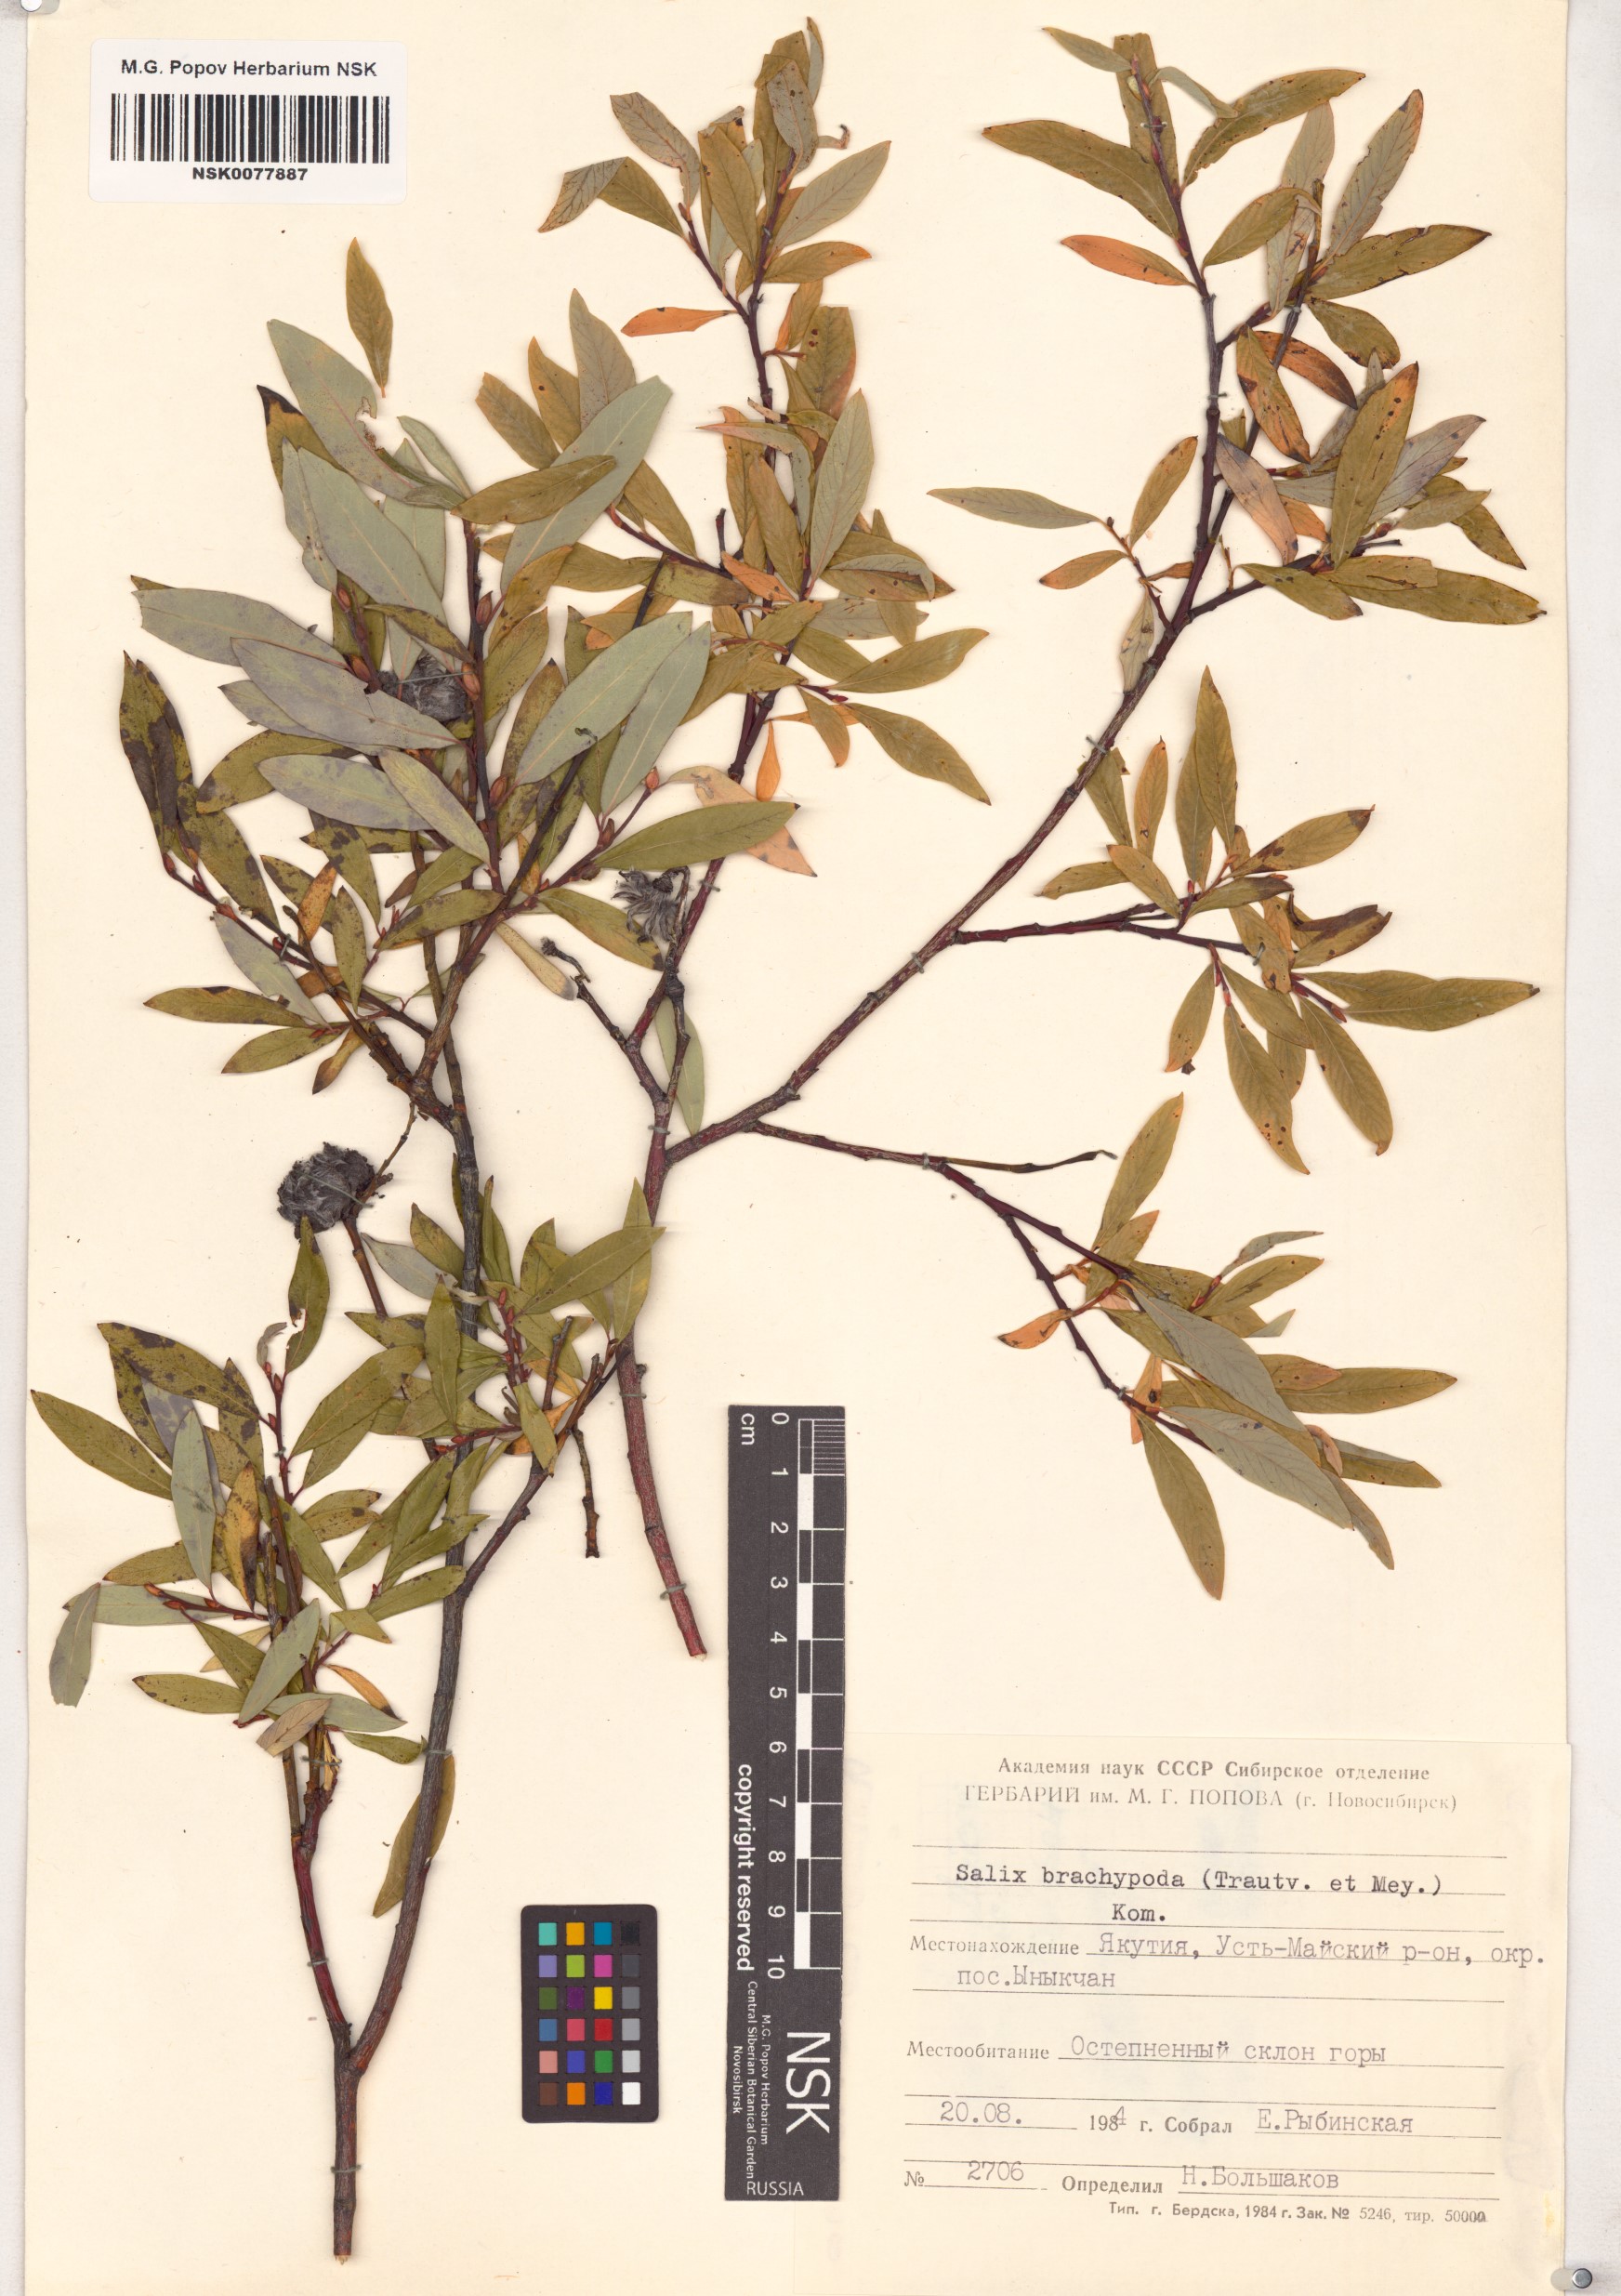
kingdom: Plantae
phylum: Tracheophyta
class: Magnoliopsida
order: Malpighiales
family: Salicaceae
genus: Salix
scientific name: Salix brachypoda
